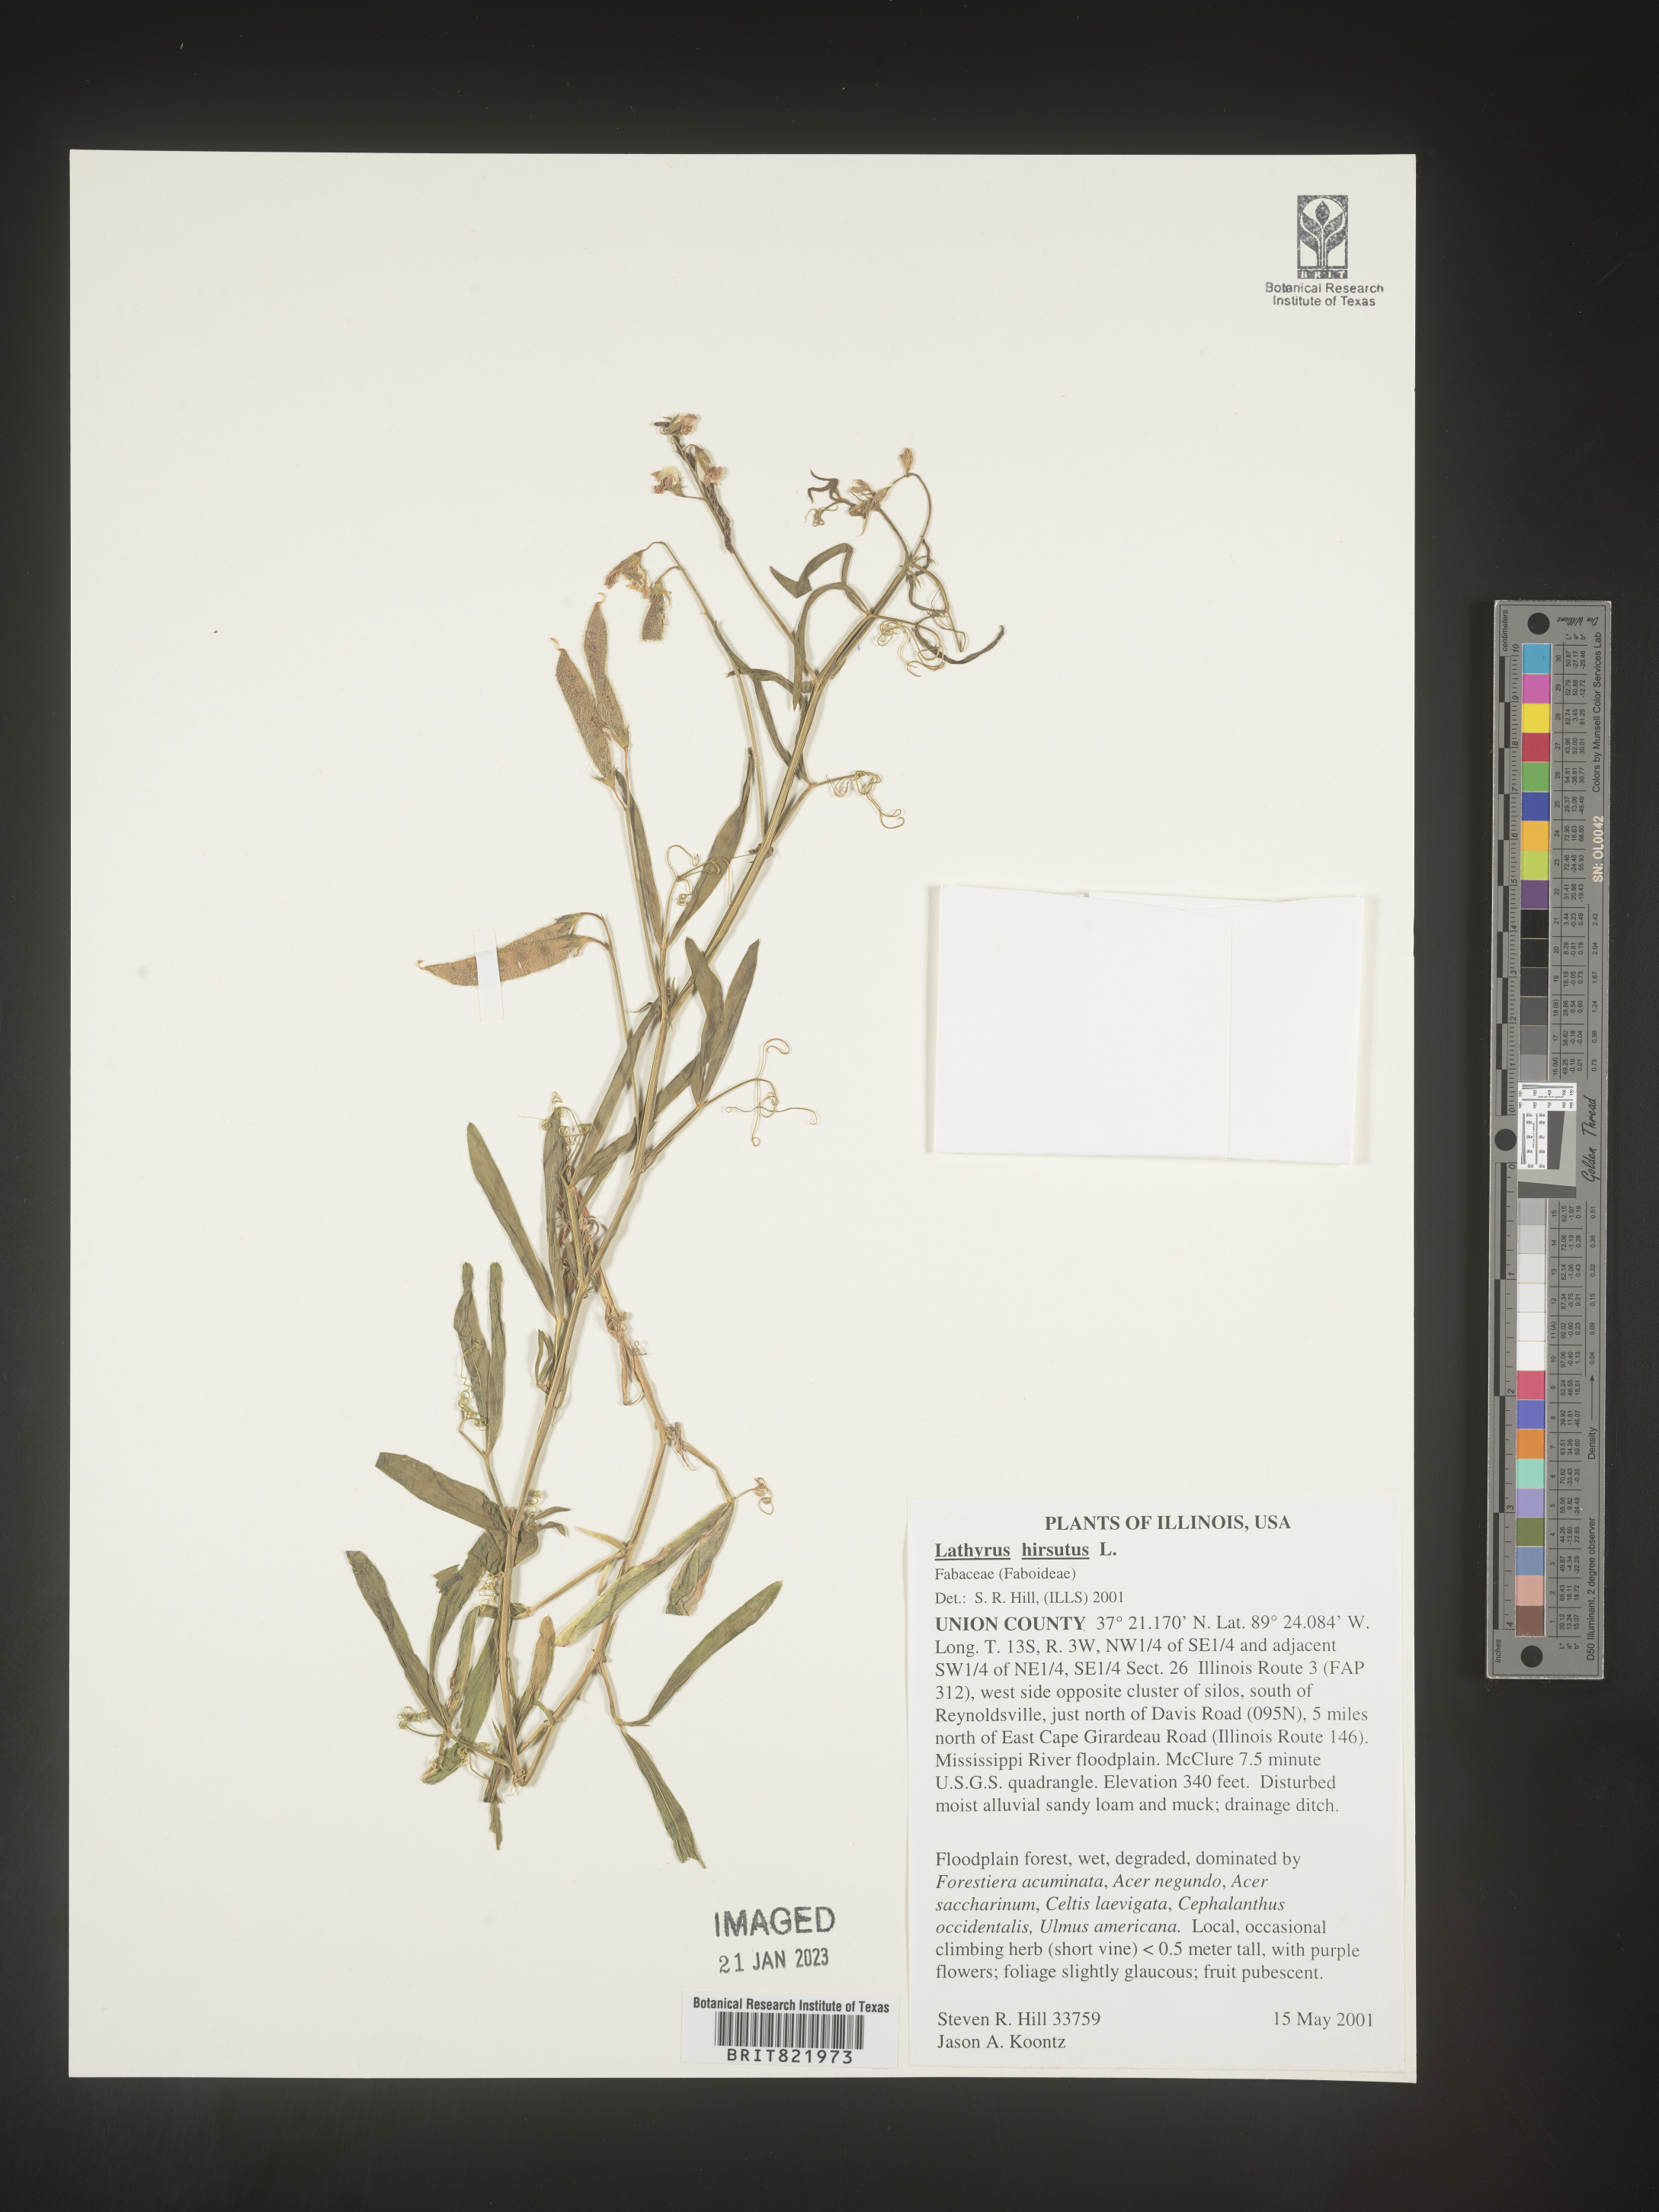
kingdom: Plantae
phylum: Tracheophyta
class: Magnoliopsida
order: Fabales
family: Fabaceae
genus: Lathyrus
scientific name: Lathyrus hirsutus
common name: Hairy vetchling
